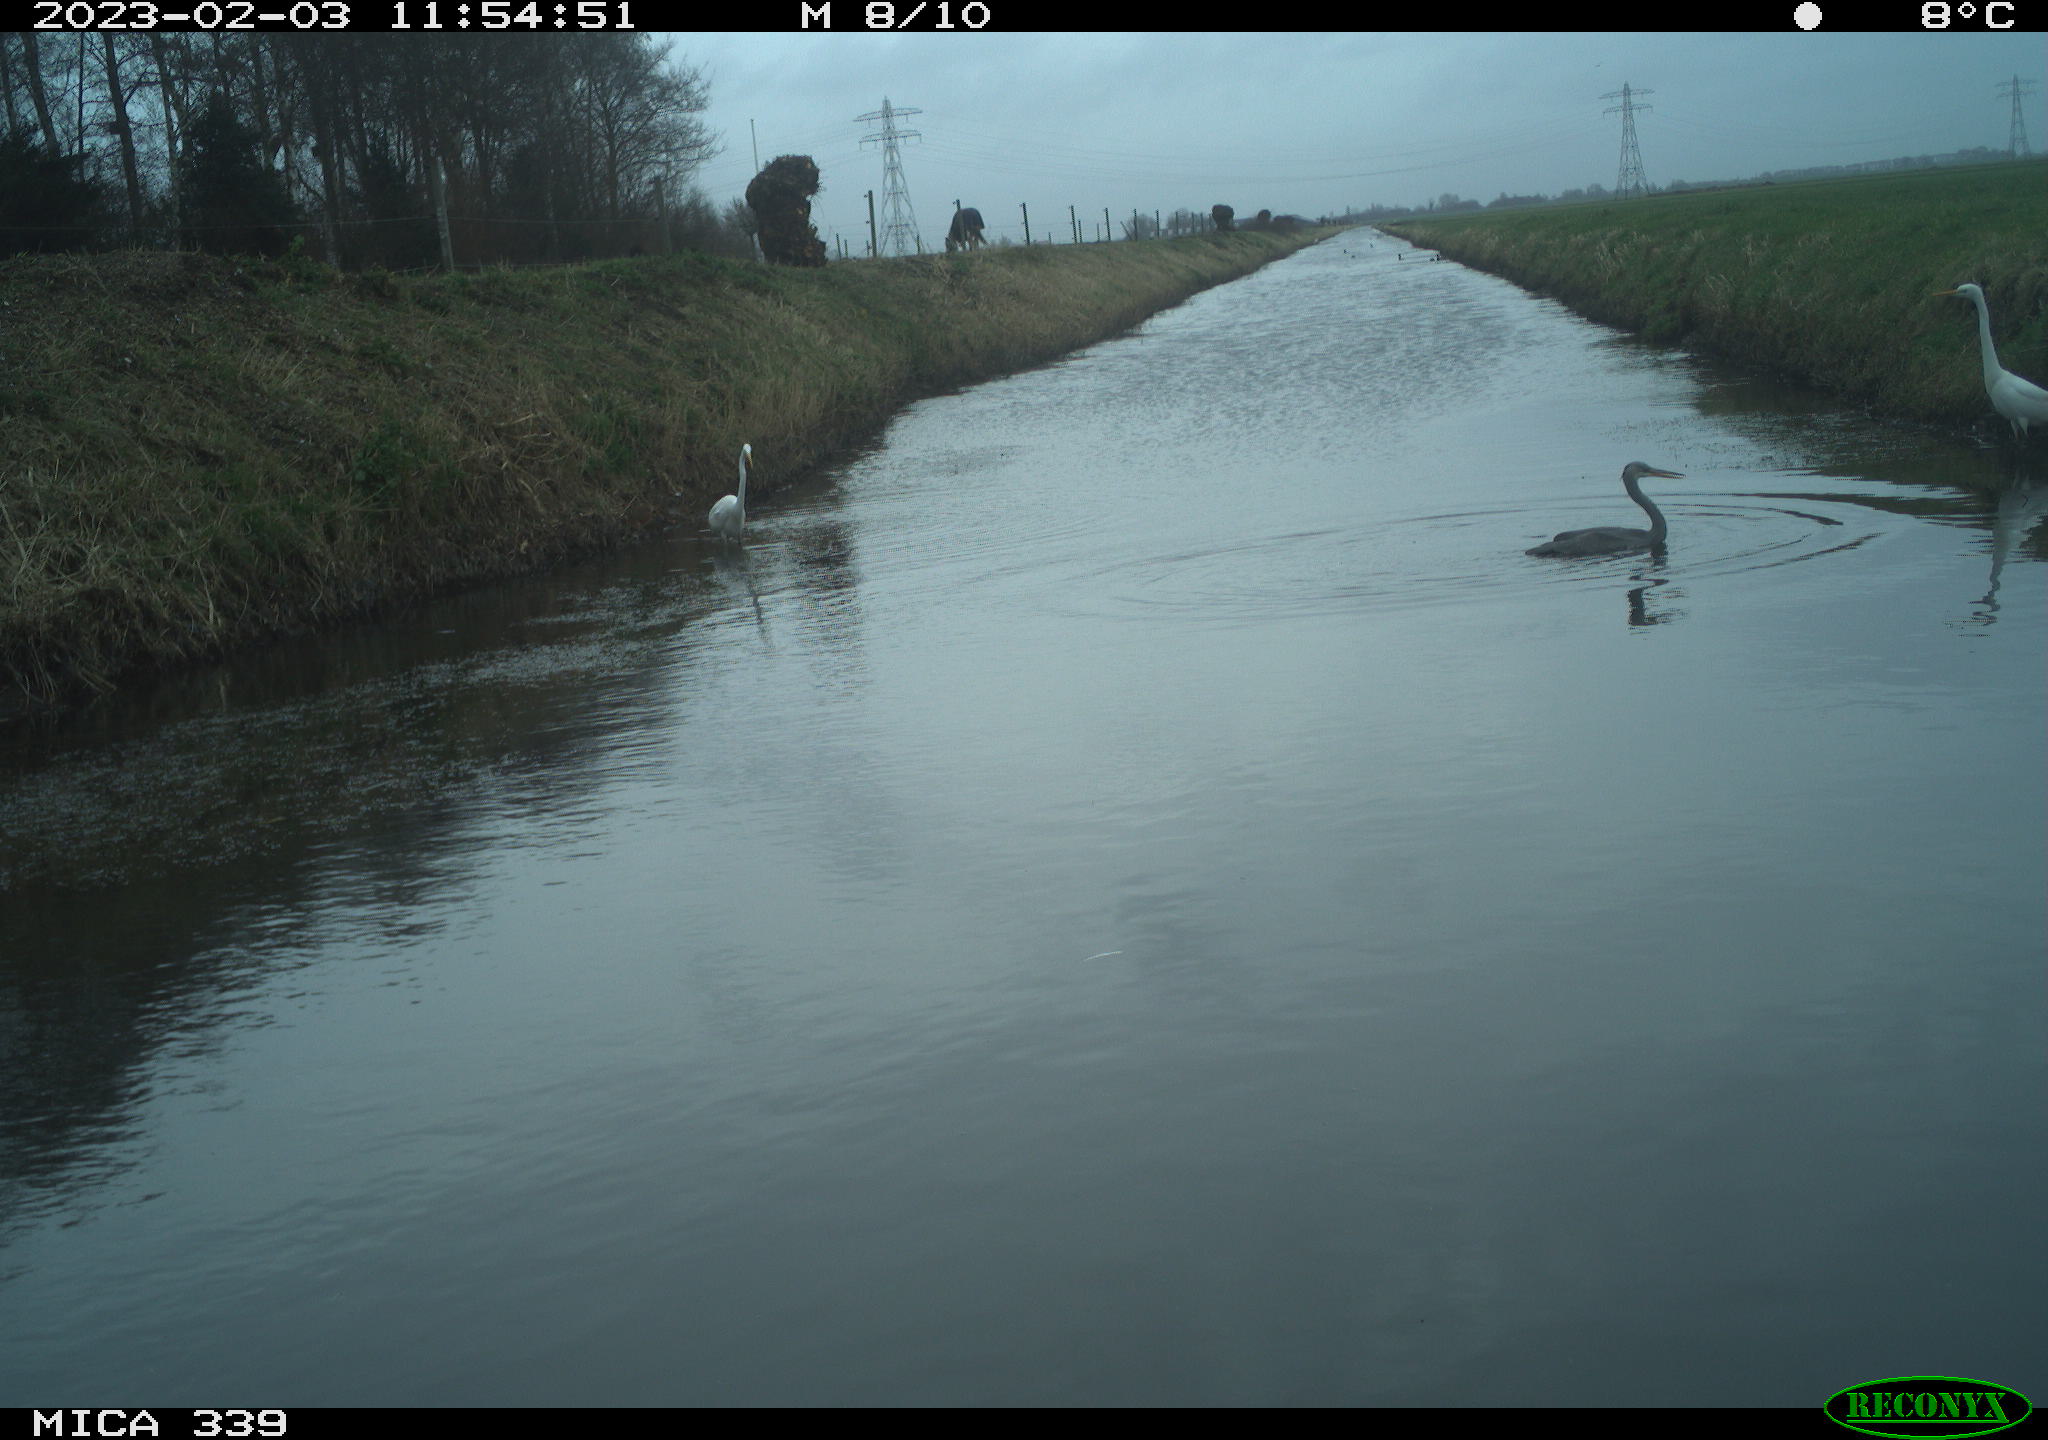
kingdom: Animalia
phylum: Chordata
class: Aves
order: Pelecaniformes
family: Ardeidae
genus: Ardea
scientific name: Ardea cinerea
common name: Grey heron
